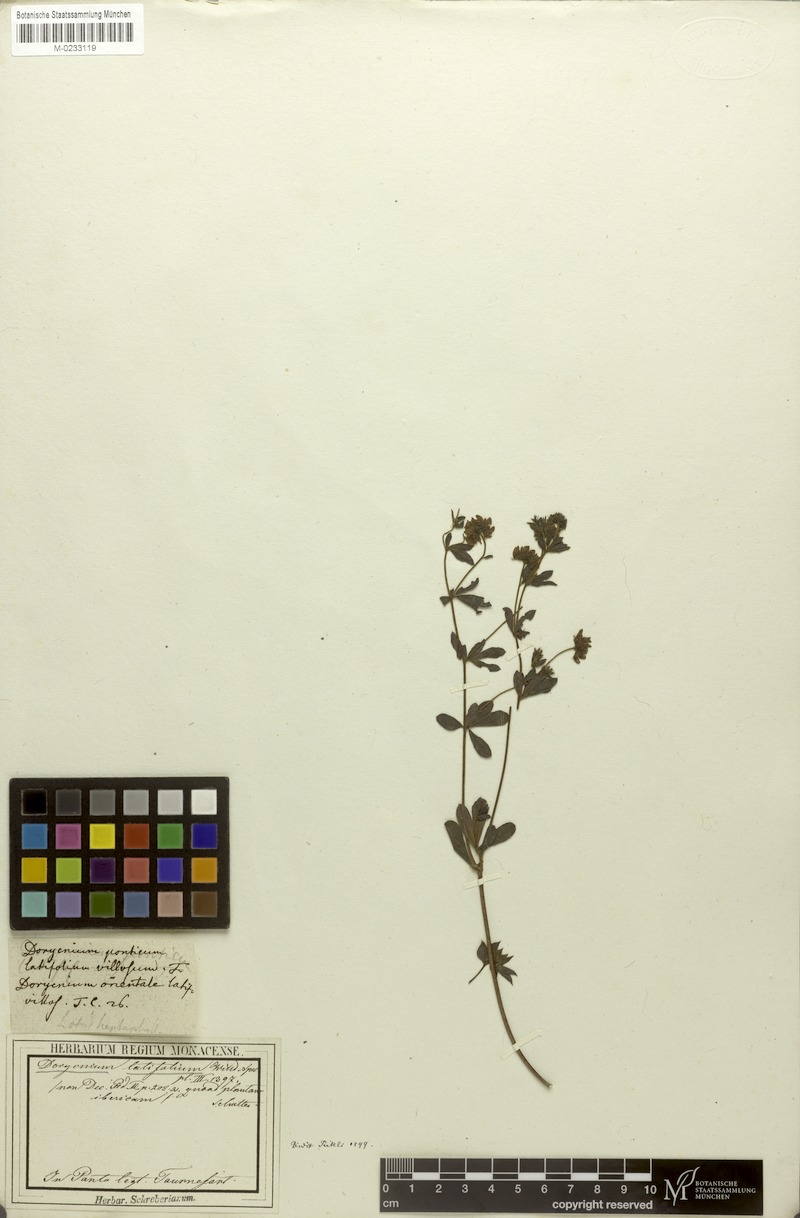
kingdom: Plantae
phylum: Tracheophyta
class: Magnoliopsida
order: Fabales
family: Fabaceae
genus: Lotus
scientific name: Lotus graecus
